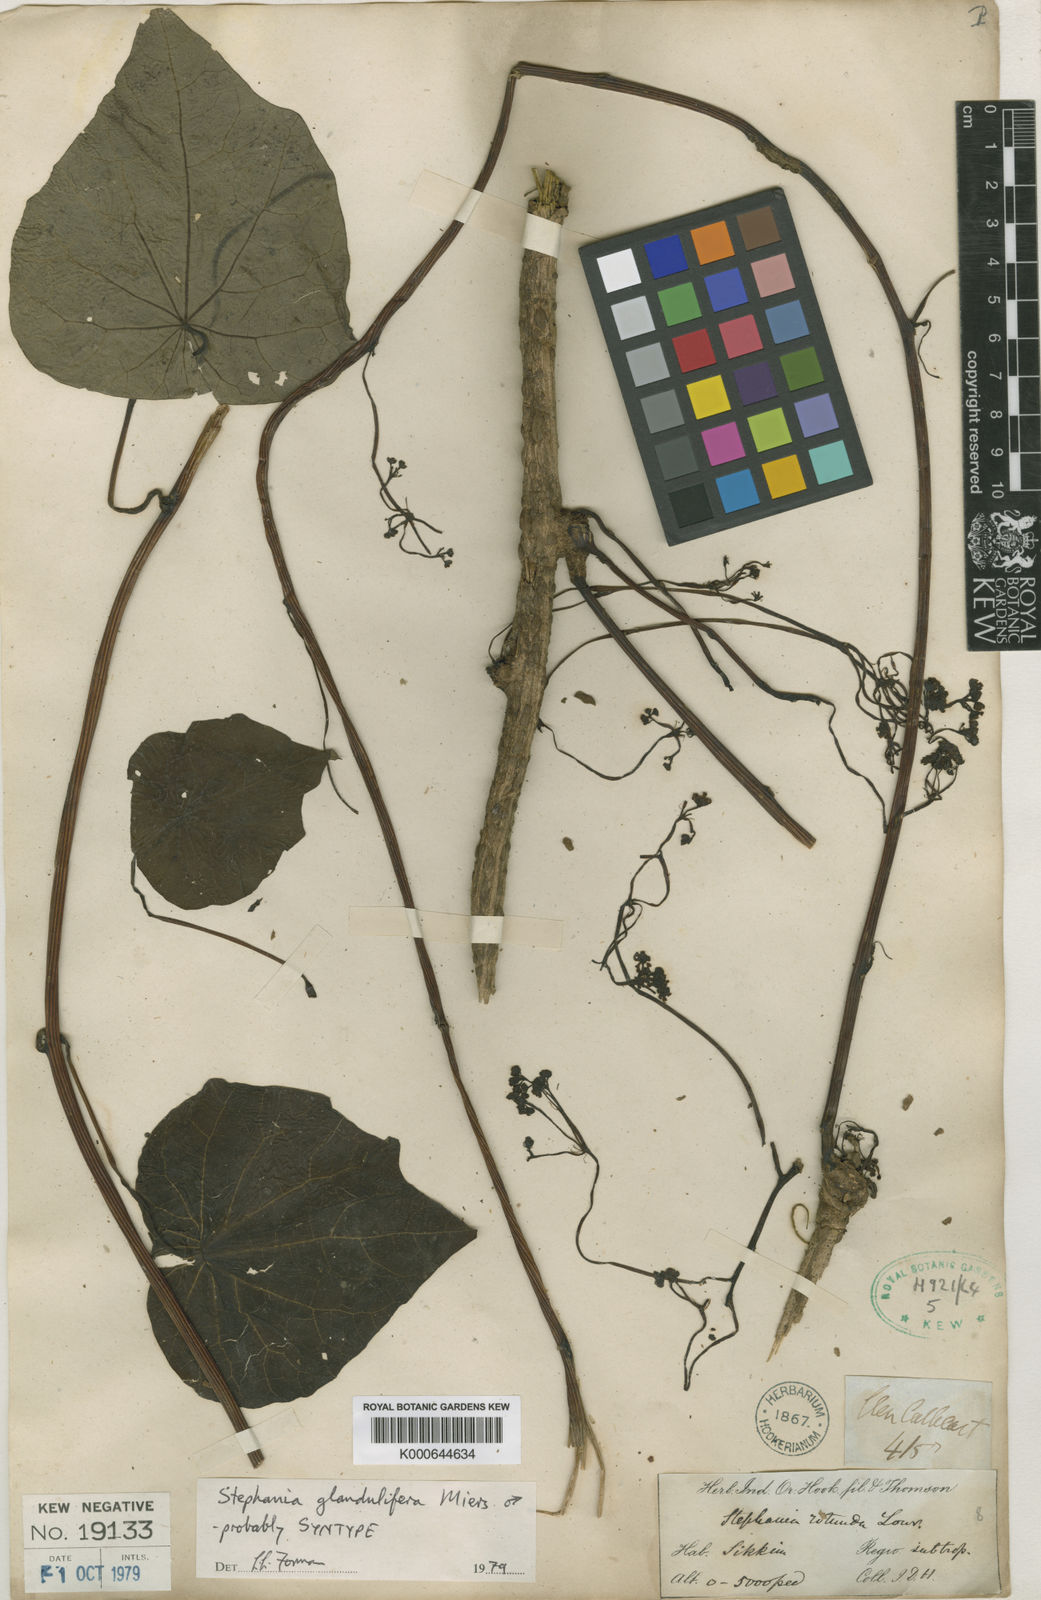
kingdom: Plantae
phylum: Tracheophyta
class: Magnoliopsida
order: Ranunculales
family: Menispermaceae
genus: Stephania
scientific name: Stephania glandulifera
